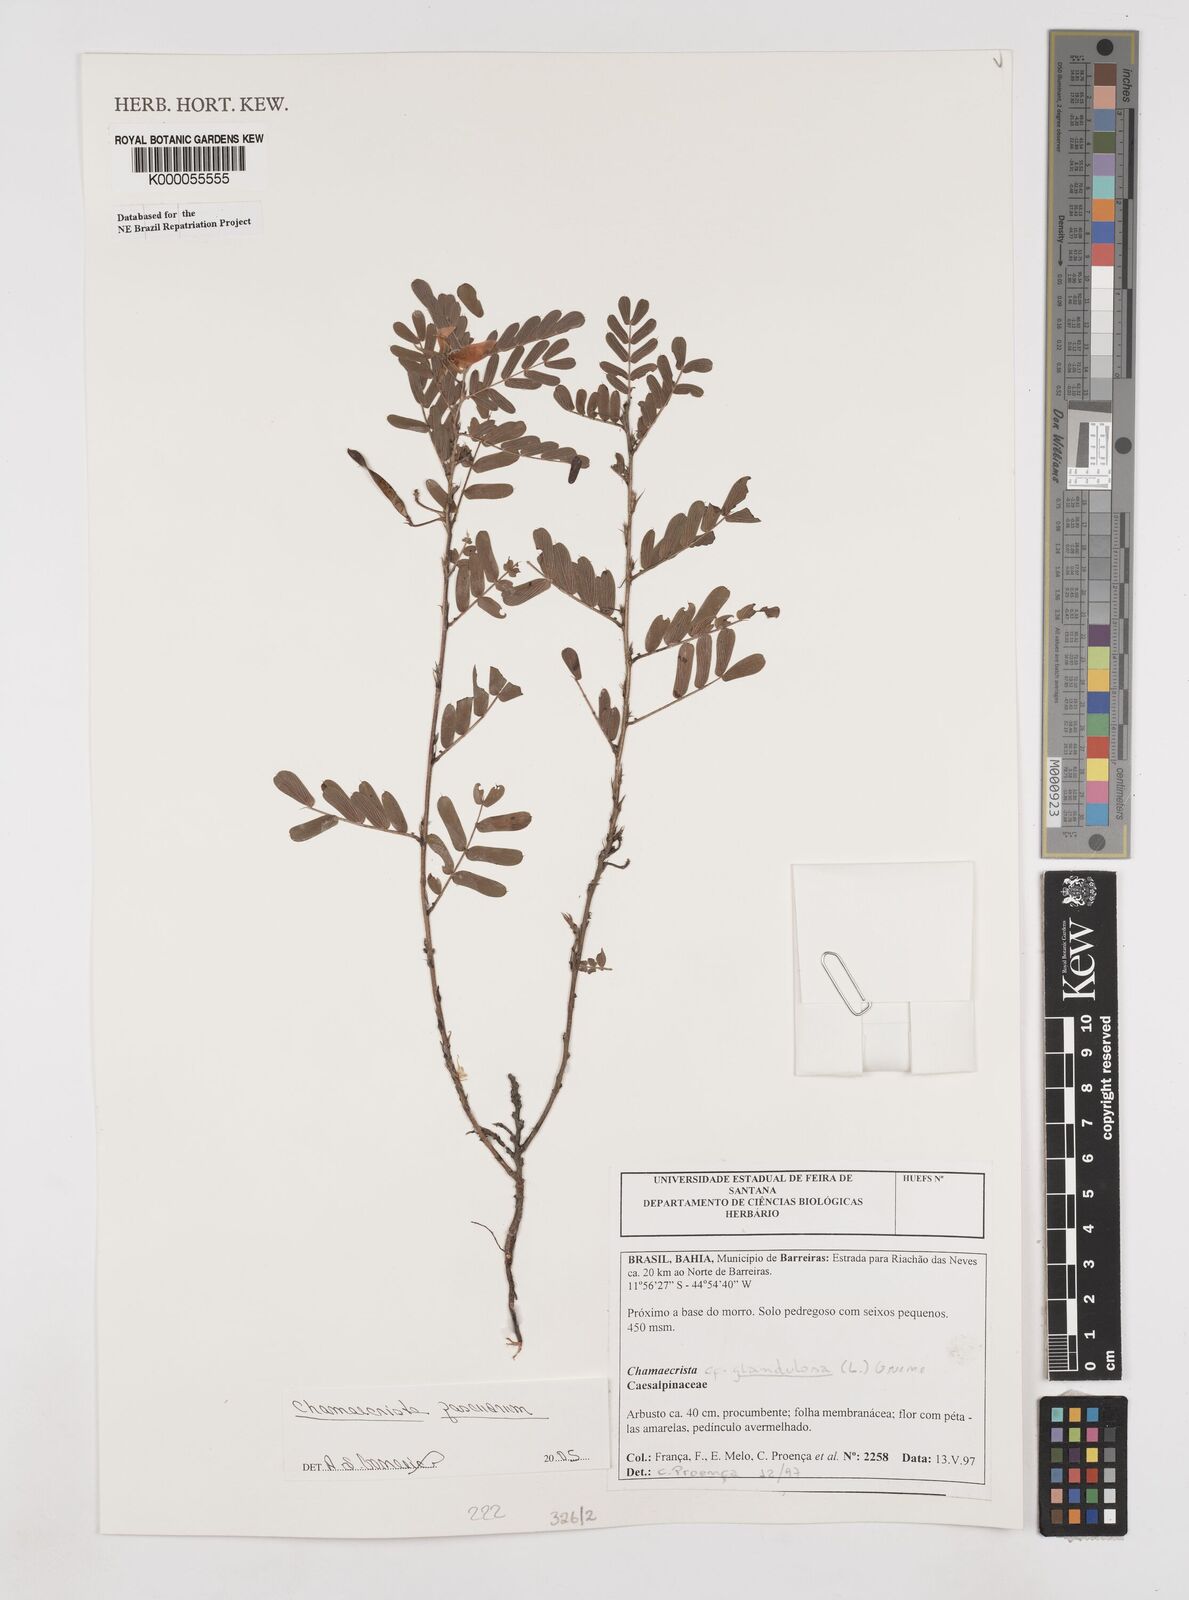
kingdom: Plantae
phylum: Tracheophyta
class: Magnoliopsida
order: Fabales
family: Fabaceae
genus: Chamaecrista
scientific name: Chamaecrista glandulosa
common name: Wild peas
